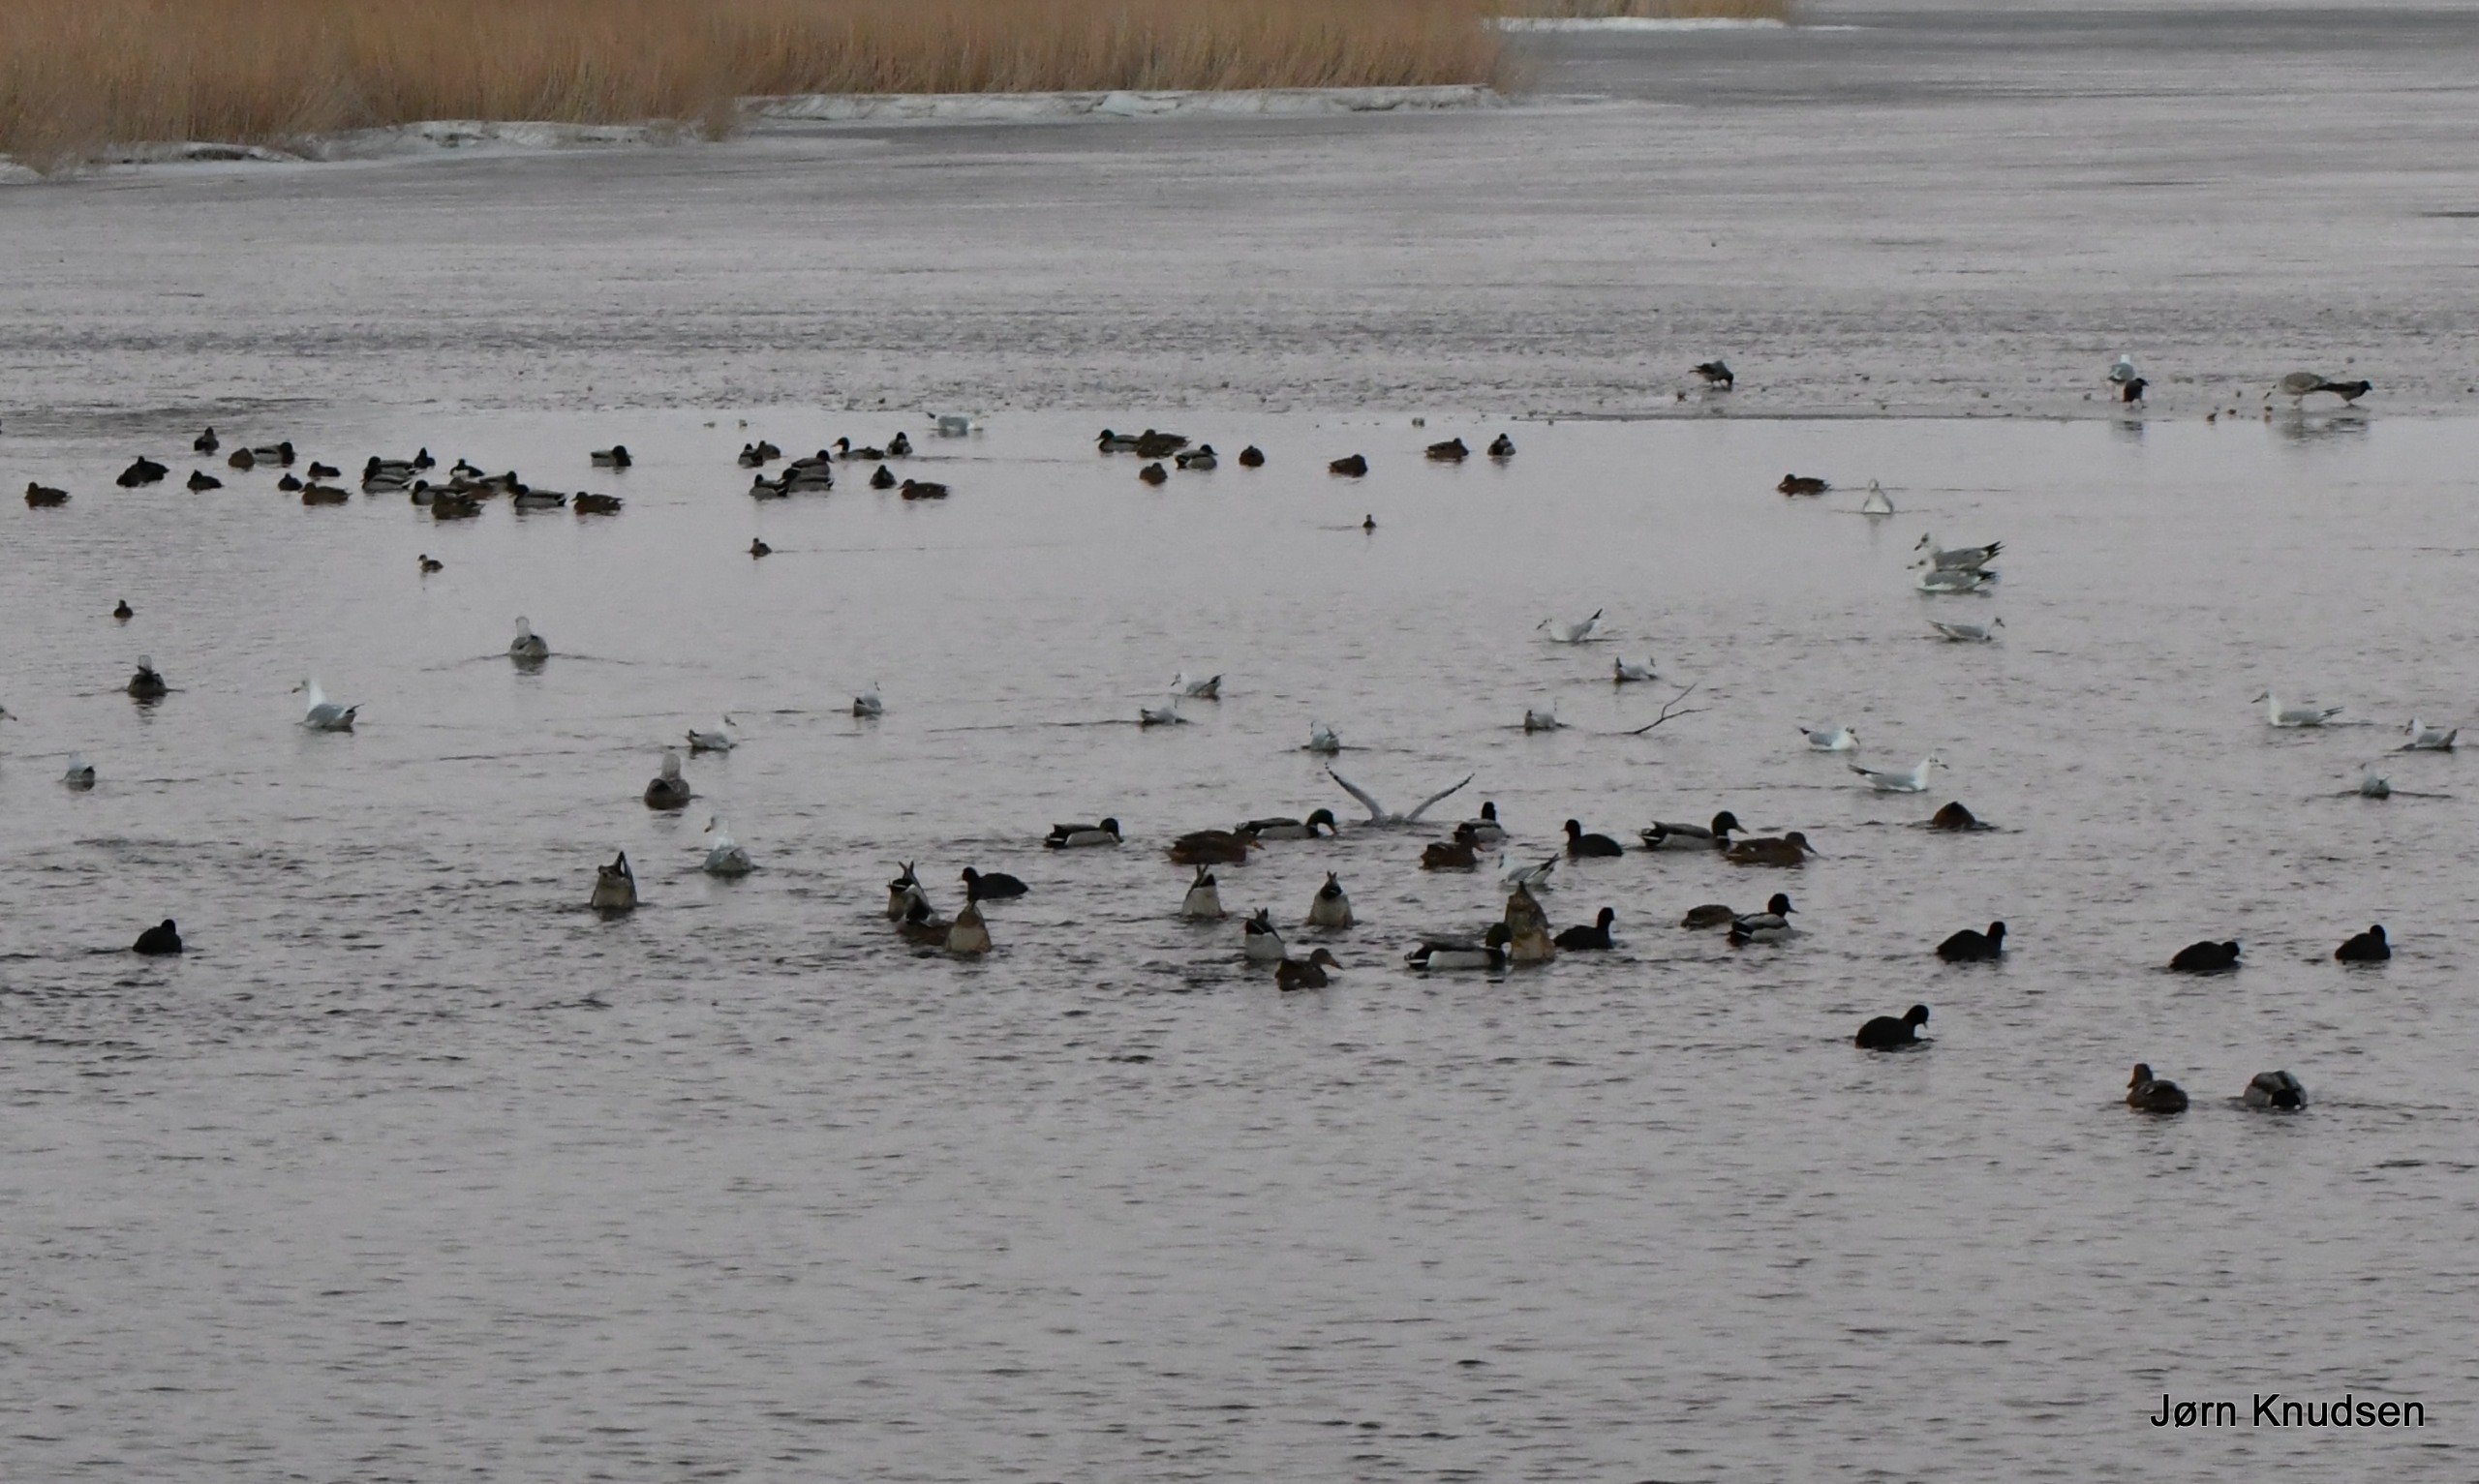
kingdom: Animalia
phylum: Chordata
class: Aves
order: Gruiformes
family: Rallidae
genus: Fulica
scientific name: Fulica atra
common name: Blishøne
